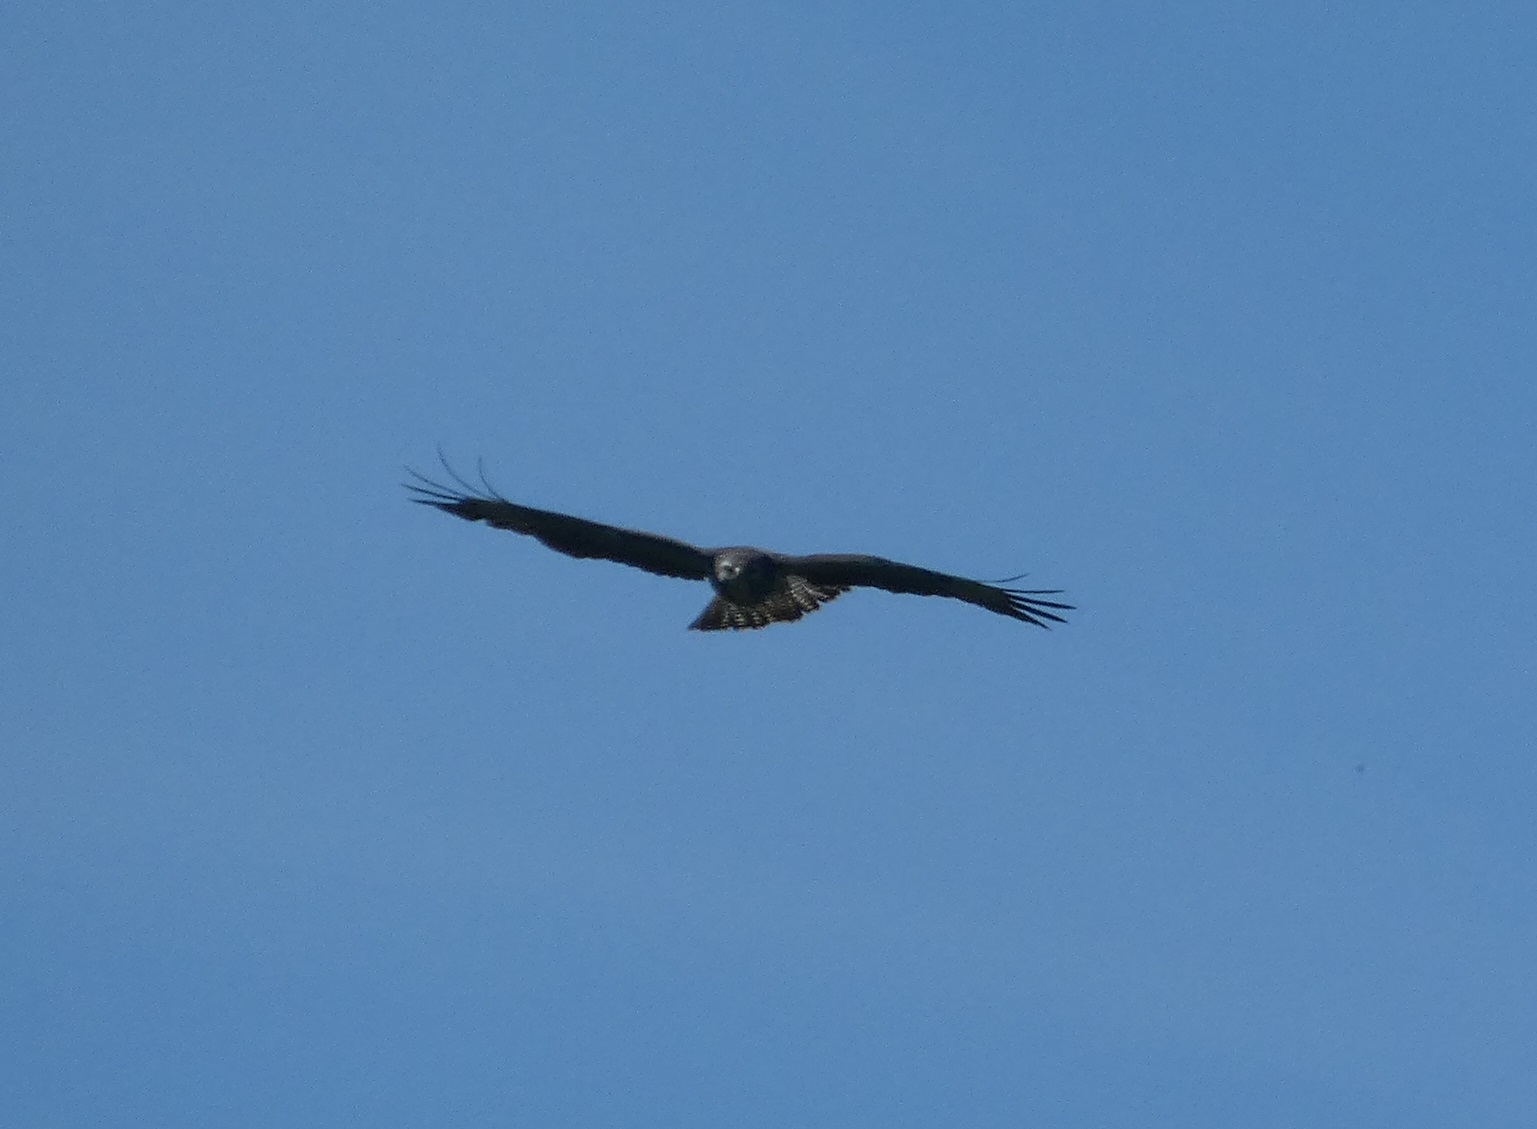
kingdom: Animalia
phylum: Chordata
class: Aves
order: Accipitriformes
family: Accipitridae
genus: Buteo
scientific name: Buteo buteo
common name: Musvåge
